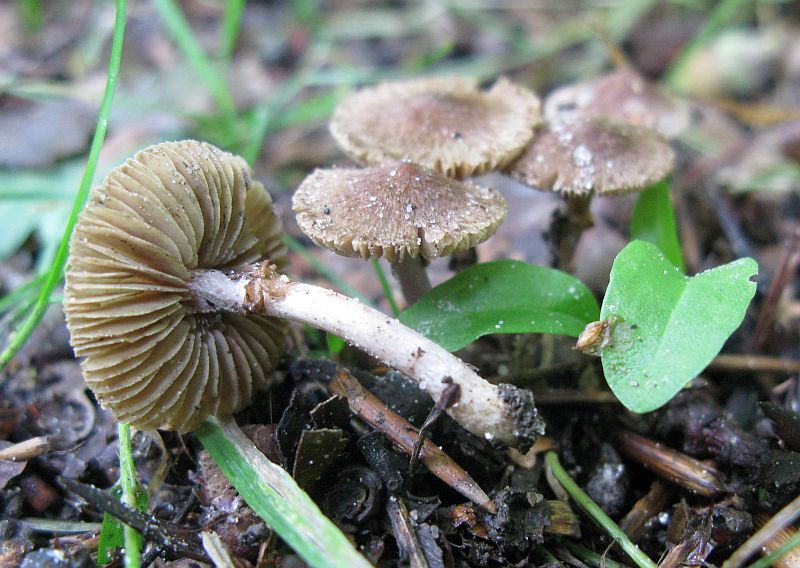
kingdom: Fungi
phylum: Basidiomycota
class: Agaricomycetes
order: Agaricales
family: Inocybaceae
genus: Inocybe
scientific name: Inocybe
